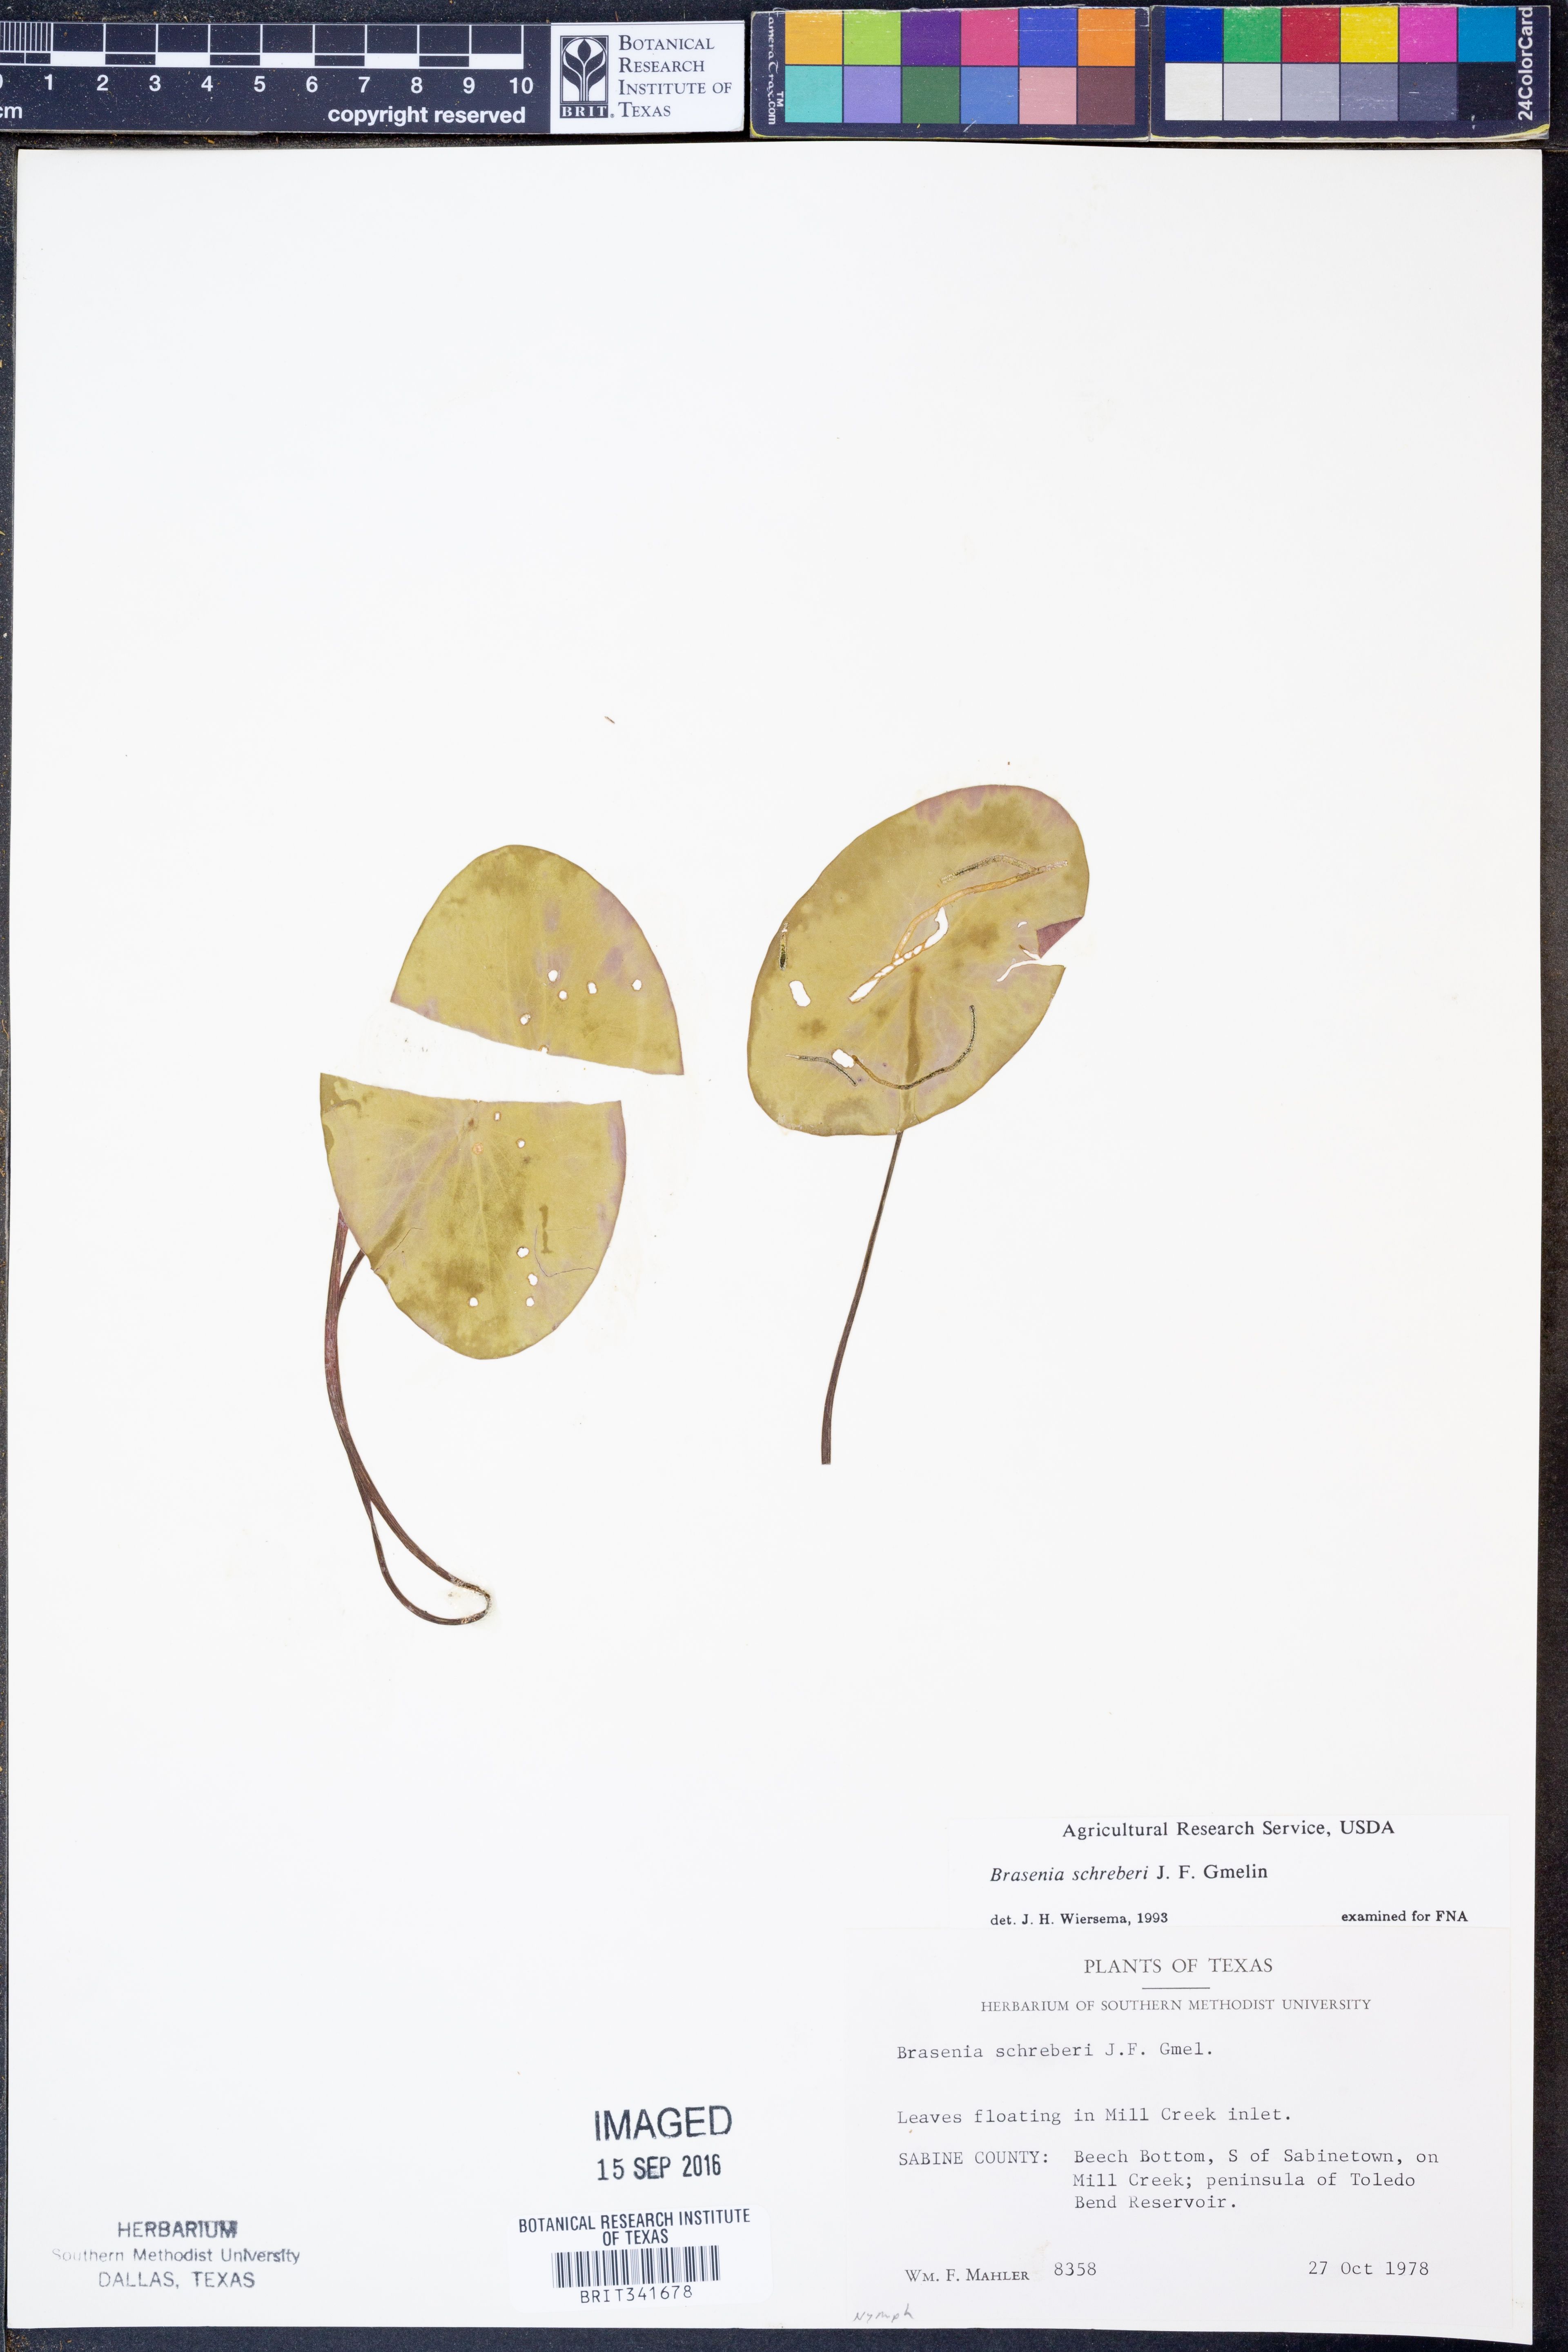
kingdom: Plantae
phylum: Tracheophyta
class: Magnoliopsida
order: Nymphaeales
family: Cabombaceae
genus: Brasenia
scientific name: Brasenia schreberi
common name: Water-shield
